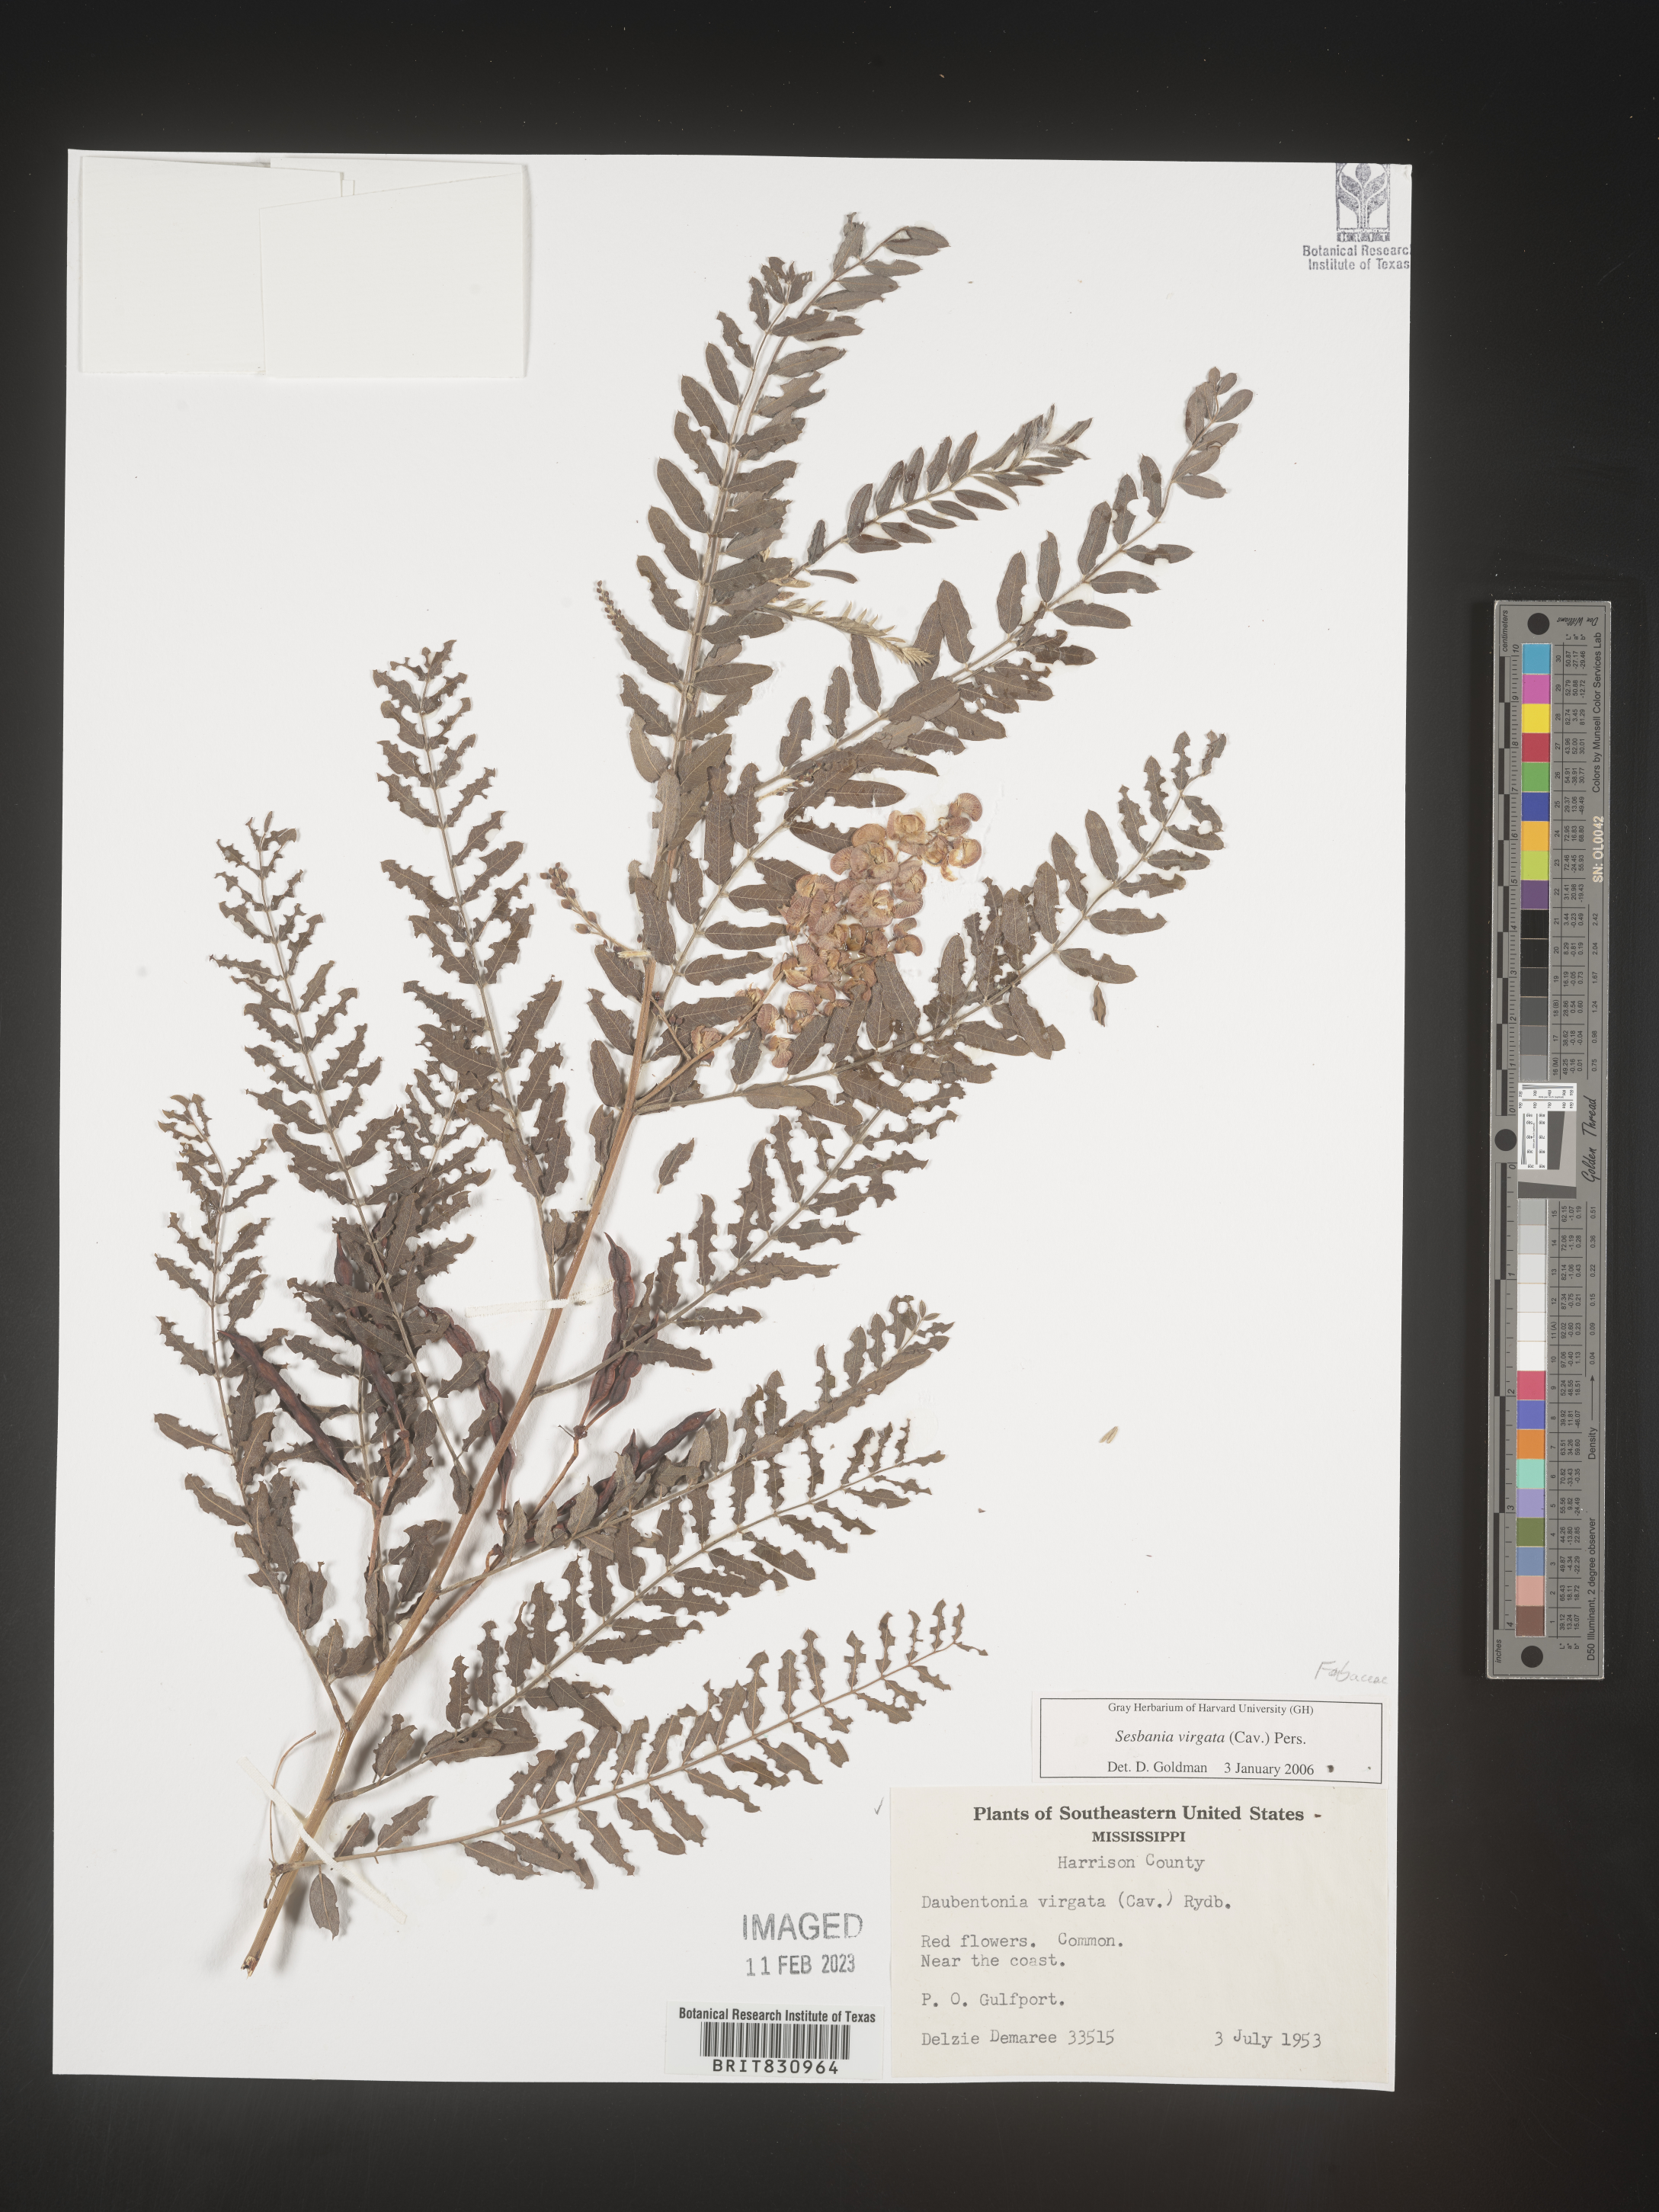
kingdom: Plantae
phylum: Tracheophyta
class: Magnoliopsida
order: Fabales
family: Fabaceae
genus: Sesbania
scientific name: Sesbania virgata
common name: Wand riverhemp
